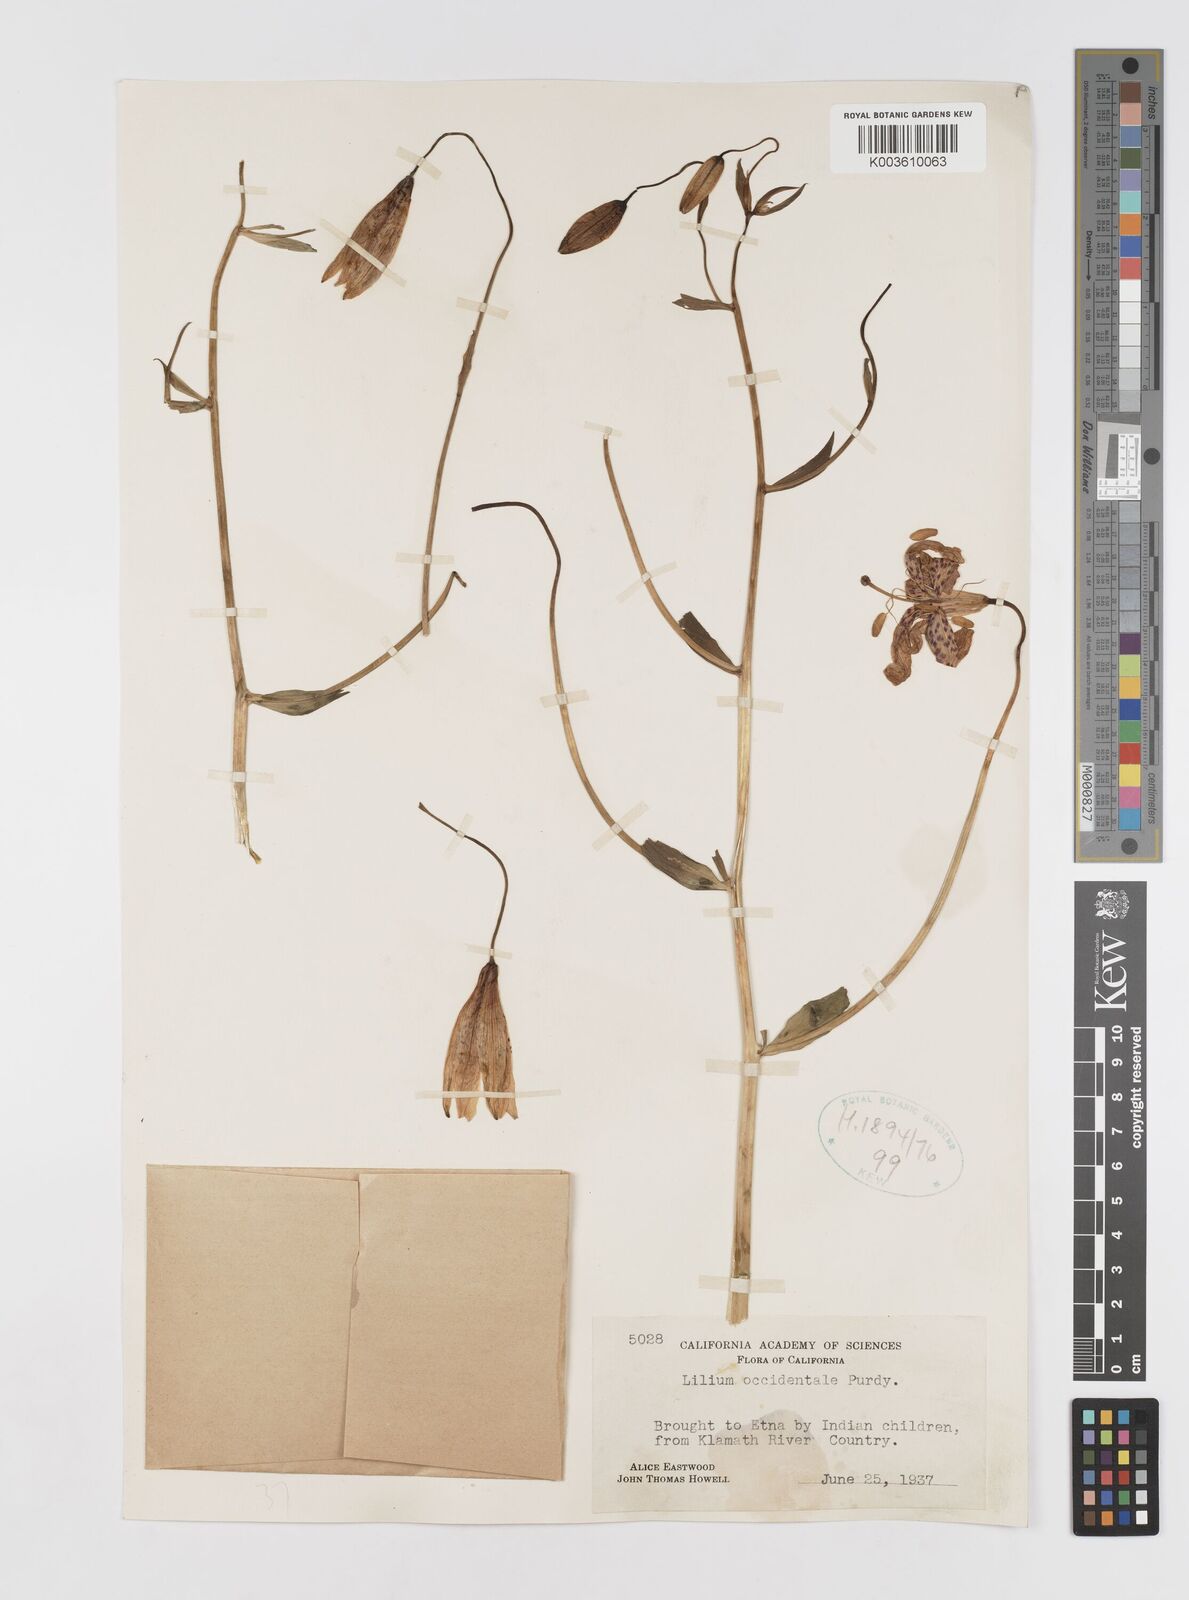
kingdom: Plantae
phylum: Tracheophyta
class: Liliopsida
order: Liliales
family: Liliaceae
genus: Lilium
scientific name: Lilium occidentale
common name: Eureka lily
